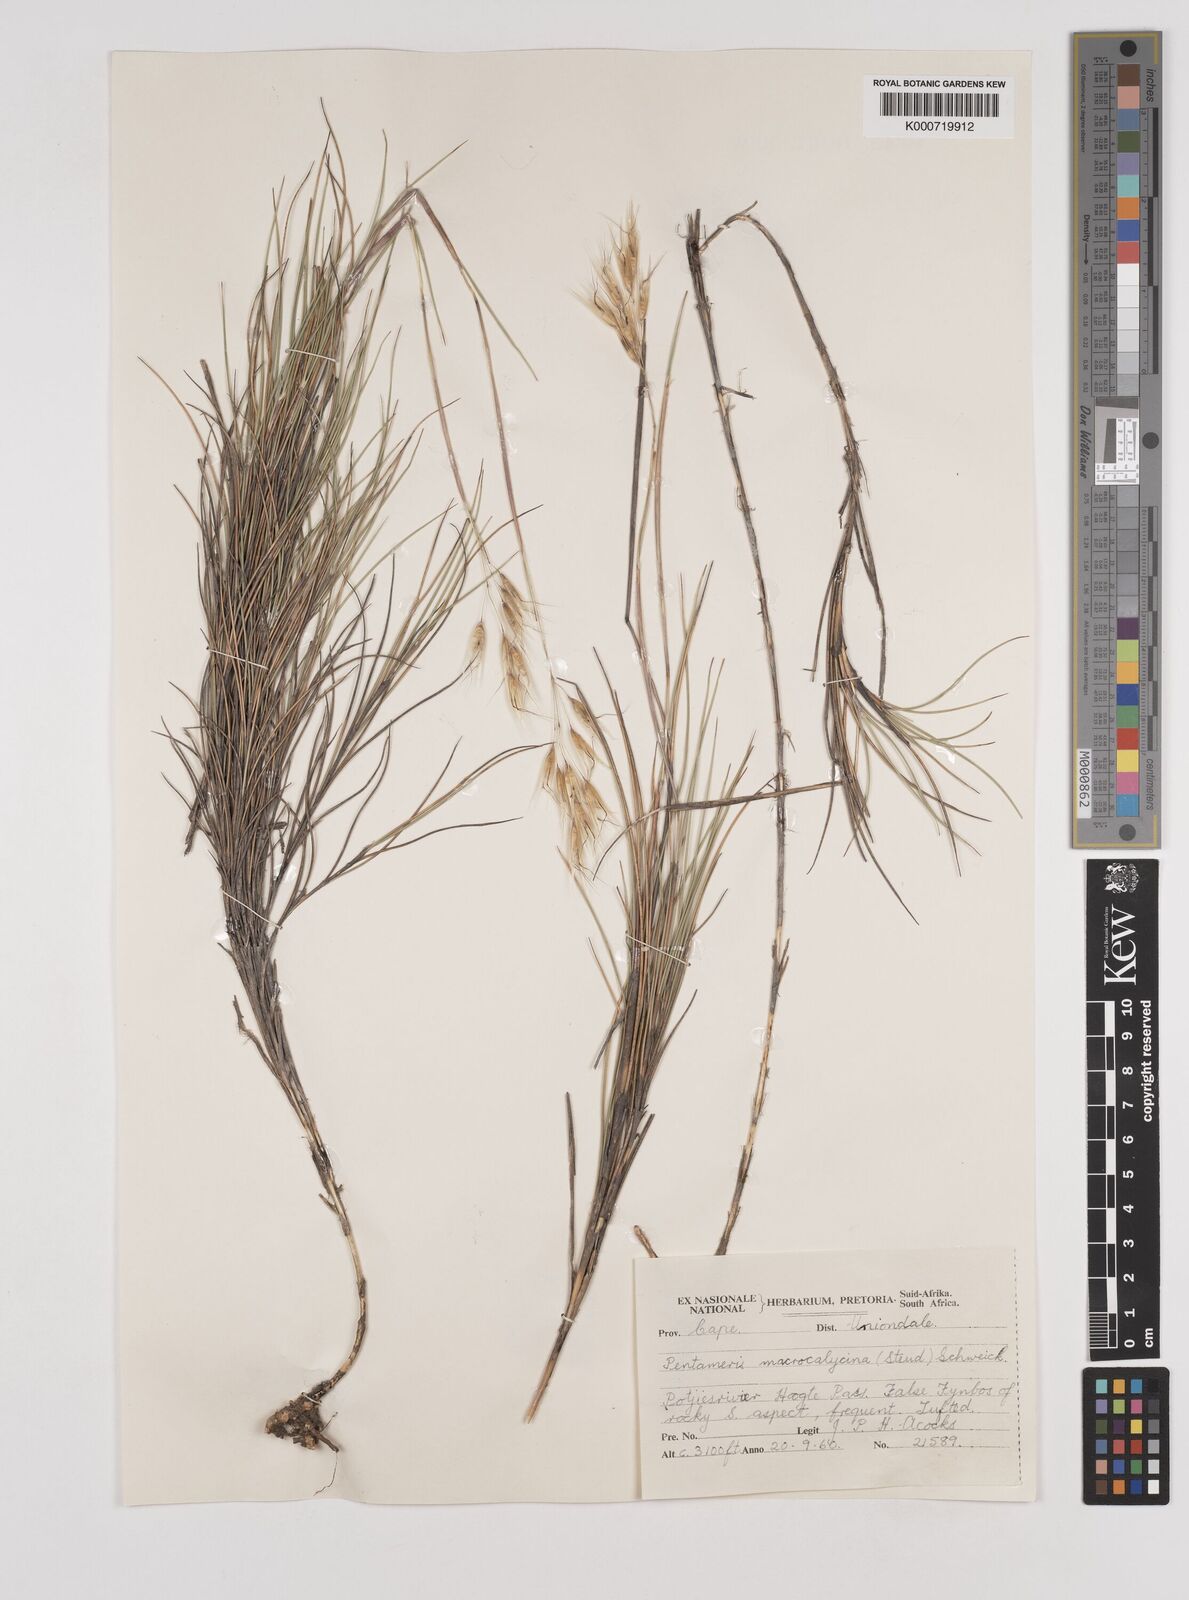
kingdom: Plantae
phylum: Tracheophyta
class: Liliopsida
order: Poales
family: Poaceae
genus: Pentameris
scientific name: Pentameris macrocalycina
